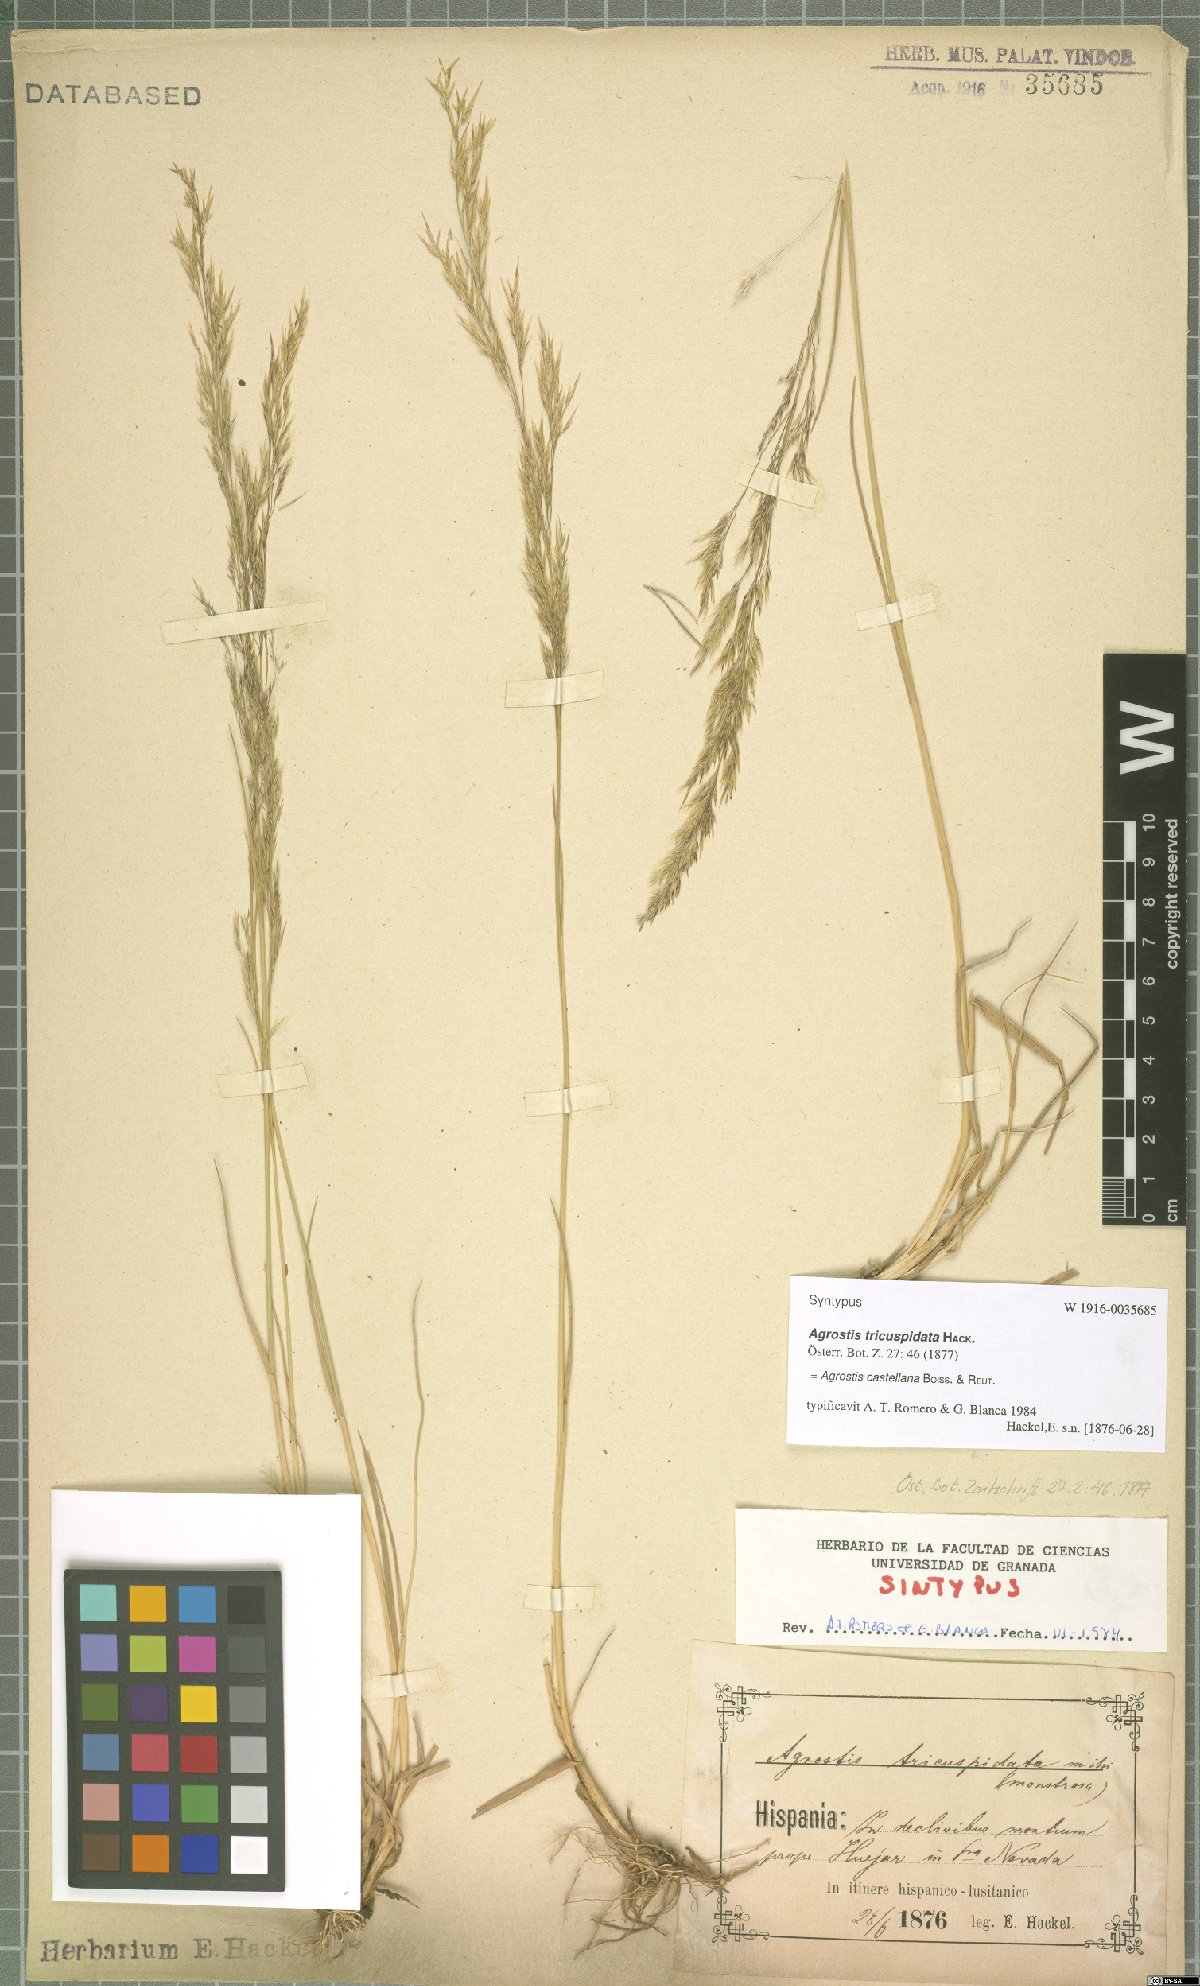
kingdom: Plantae
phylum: Tracheophyta
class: Liliopsida
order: Poales
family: Poaceae
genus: Agrostis
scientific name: Agrostis castellana
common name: Highland bent
